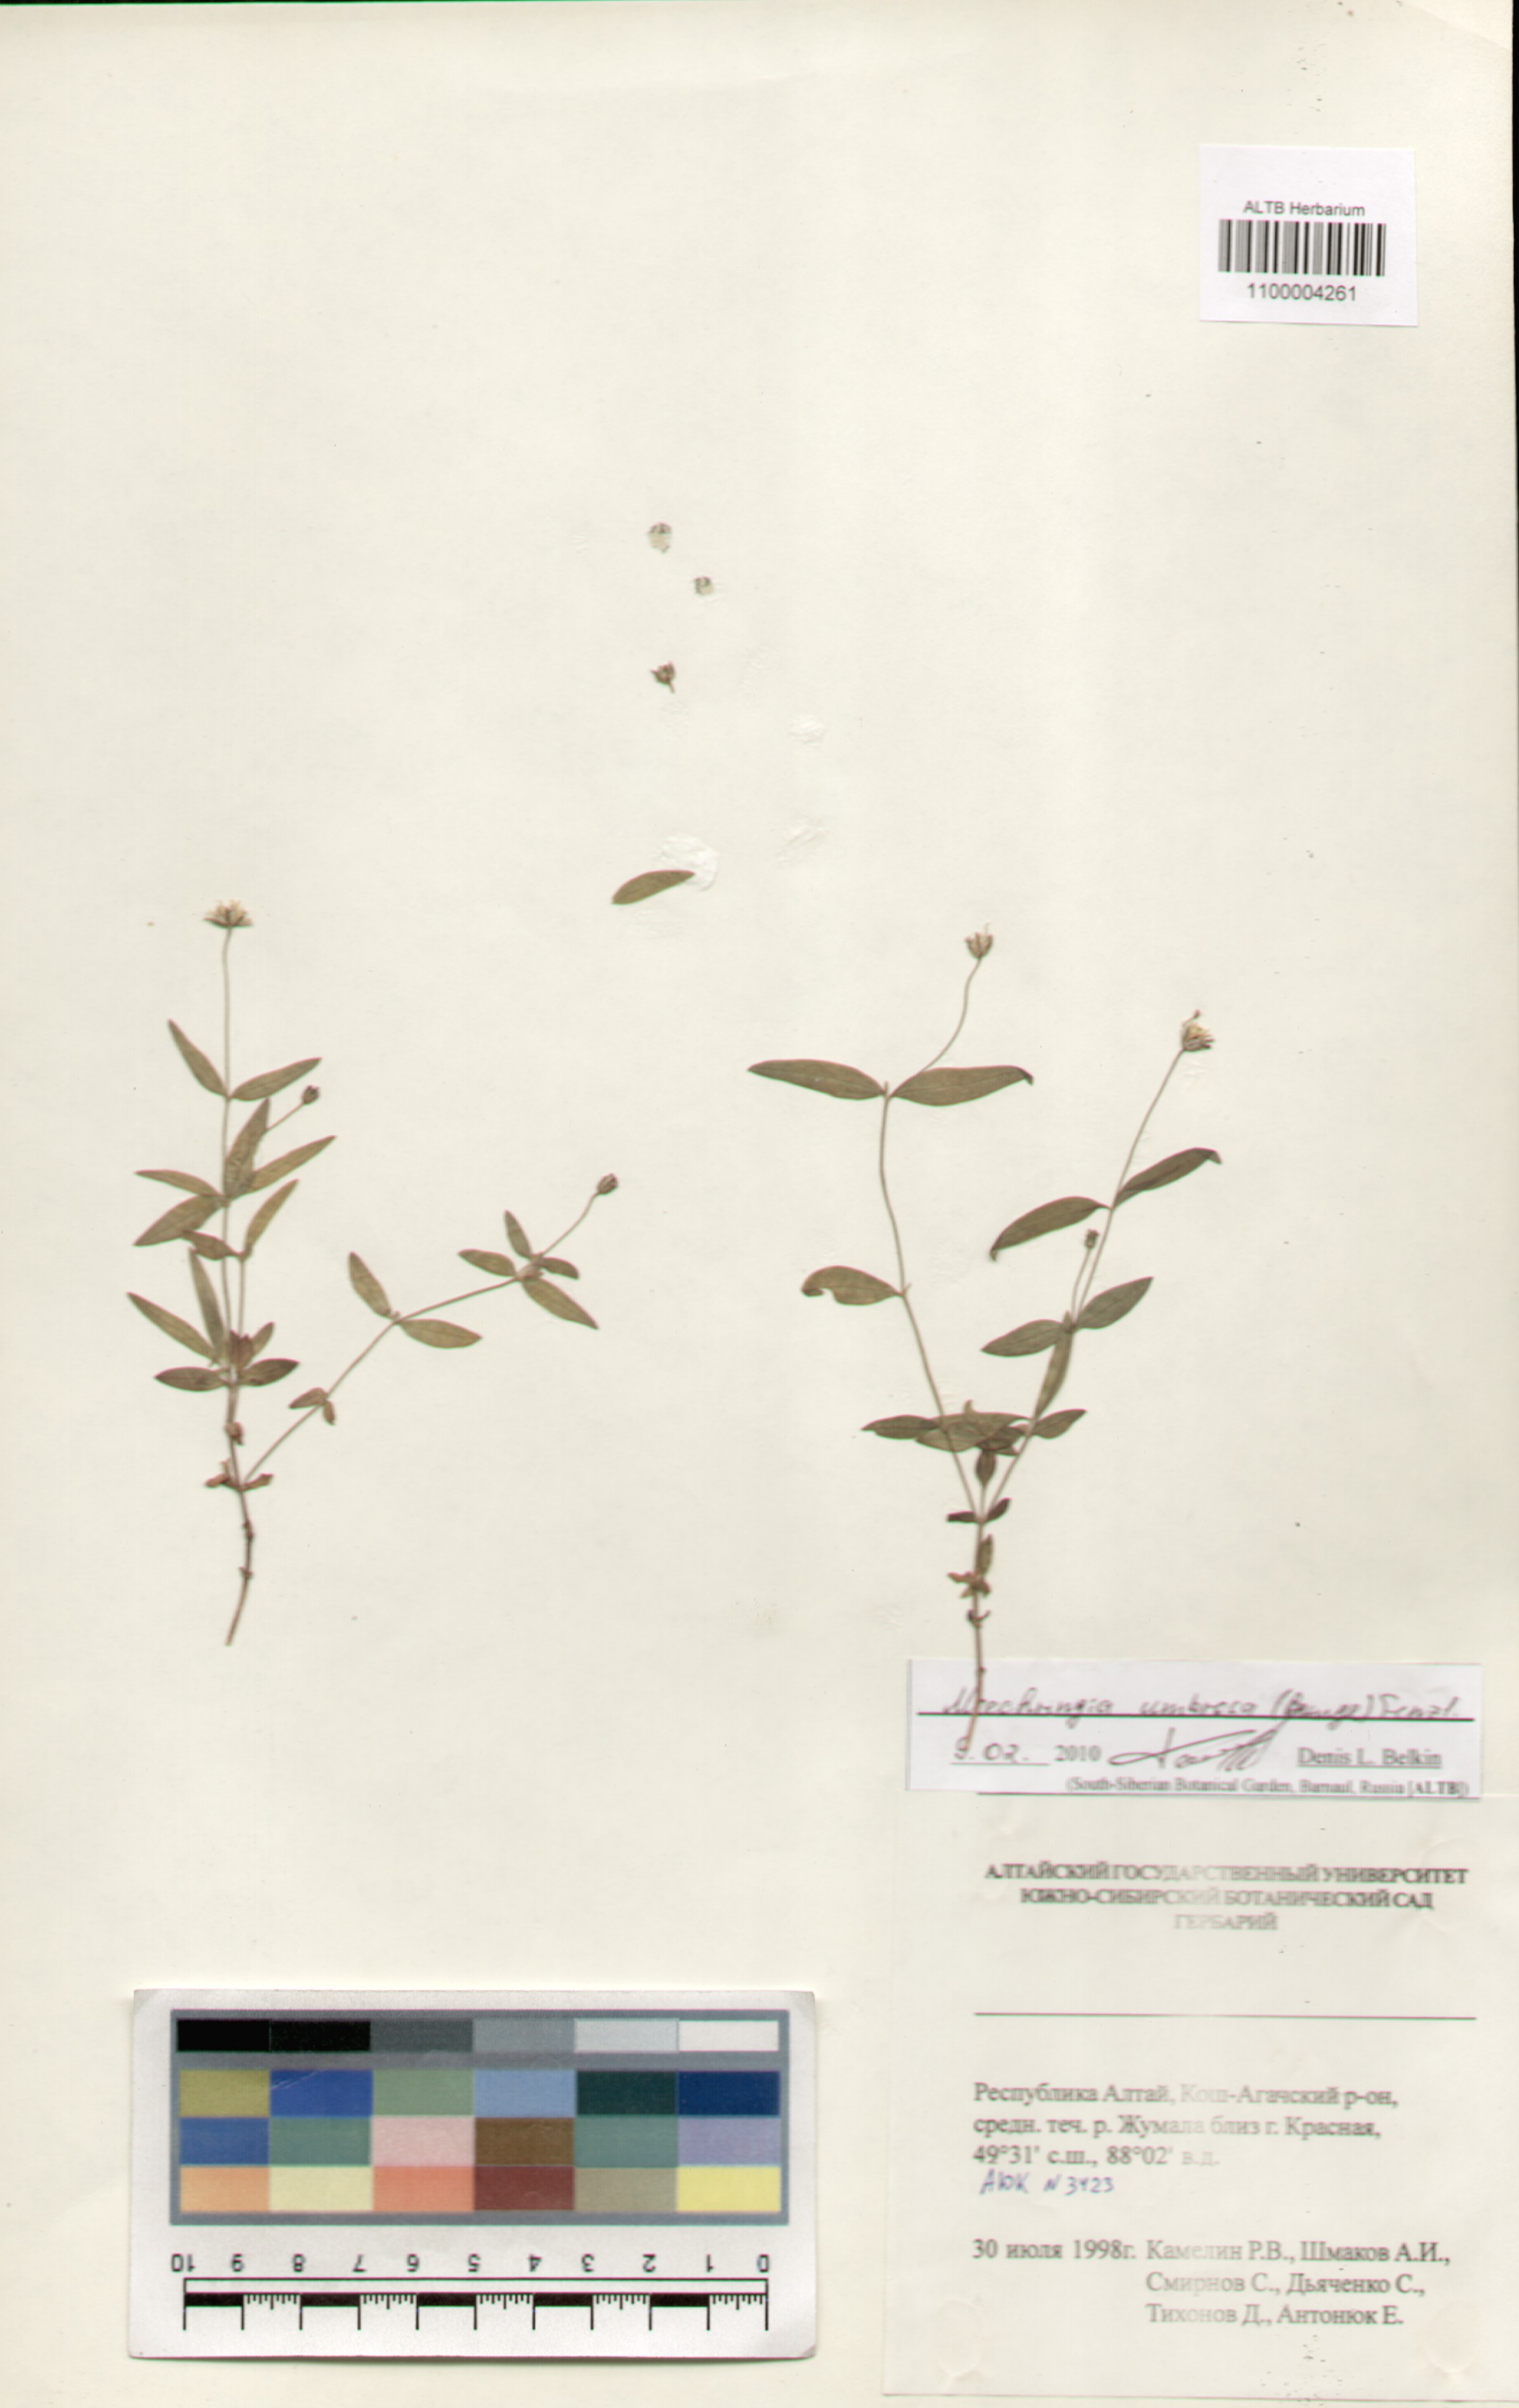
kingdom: Plantae
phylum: Tracheophyta
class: Magnoliopsida
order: Caryophyllales
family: Caryophyllaceae
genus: Moehringia
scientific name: Moehringia umbrosa
